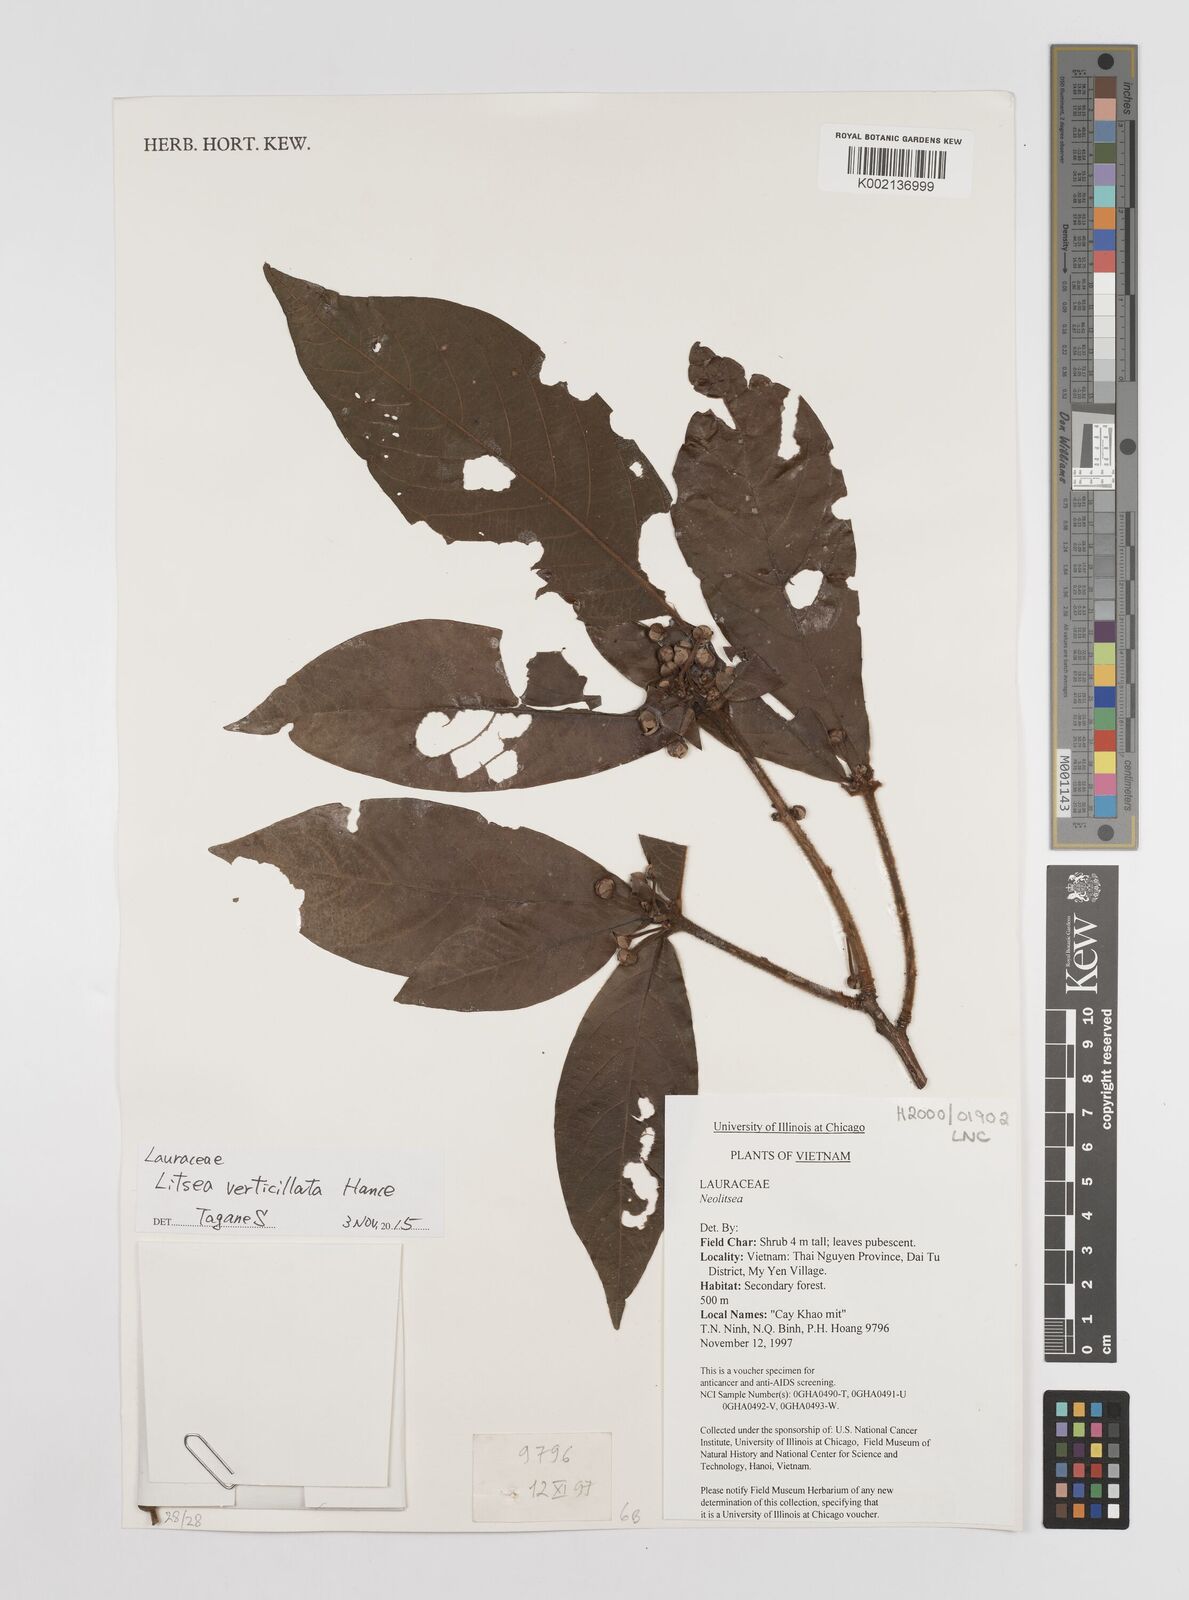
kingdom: Plantae
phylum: Tracheophyta
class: Magnoliopsida
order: Laurales
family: Lauraceae
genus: Litsea
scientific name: Litsea verticillata
